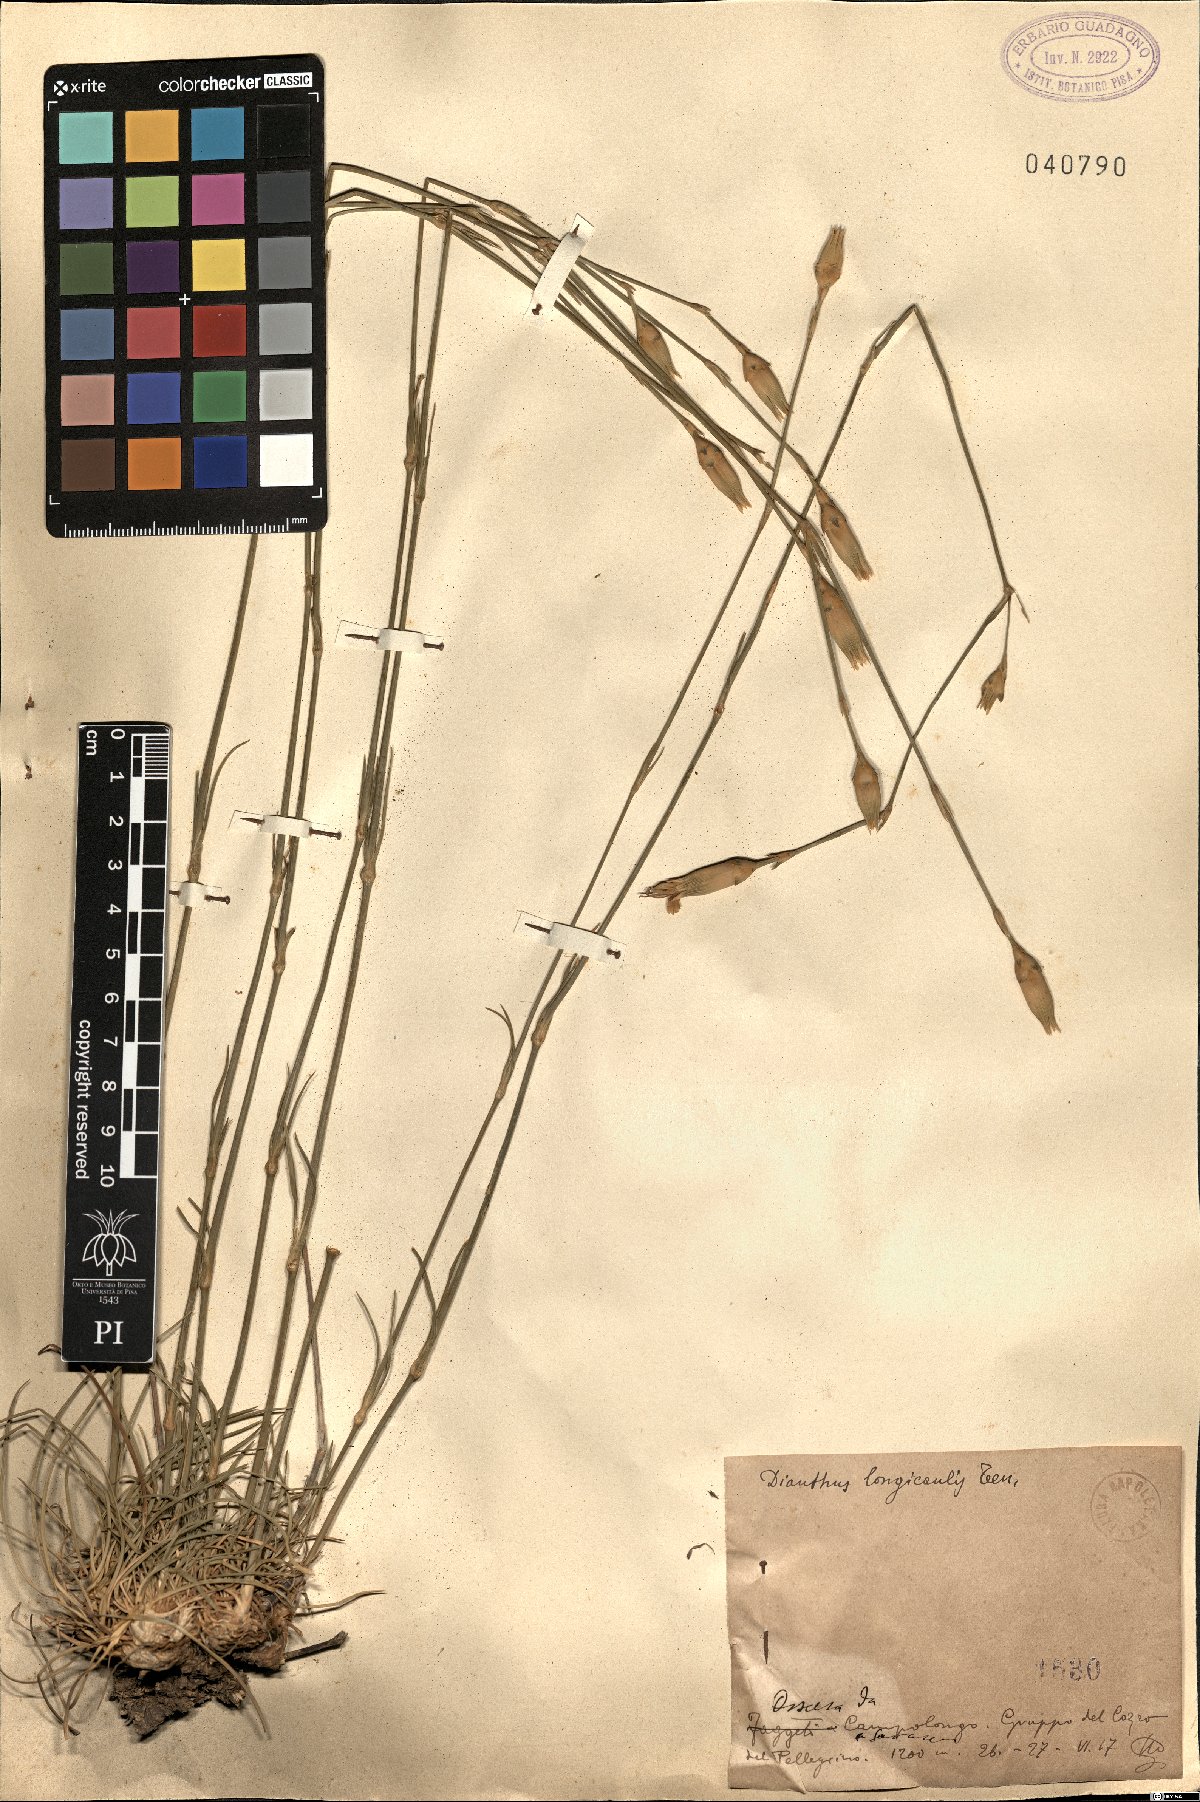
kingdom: Plantae
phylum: Tracheophyta
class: Magnoliopsida
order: Caryophyllales
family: Caryophyllaceae
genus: Dianthus
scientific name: Dianthus virgineus
